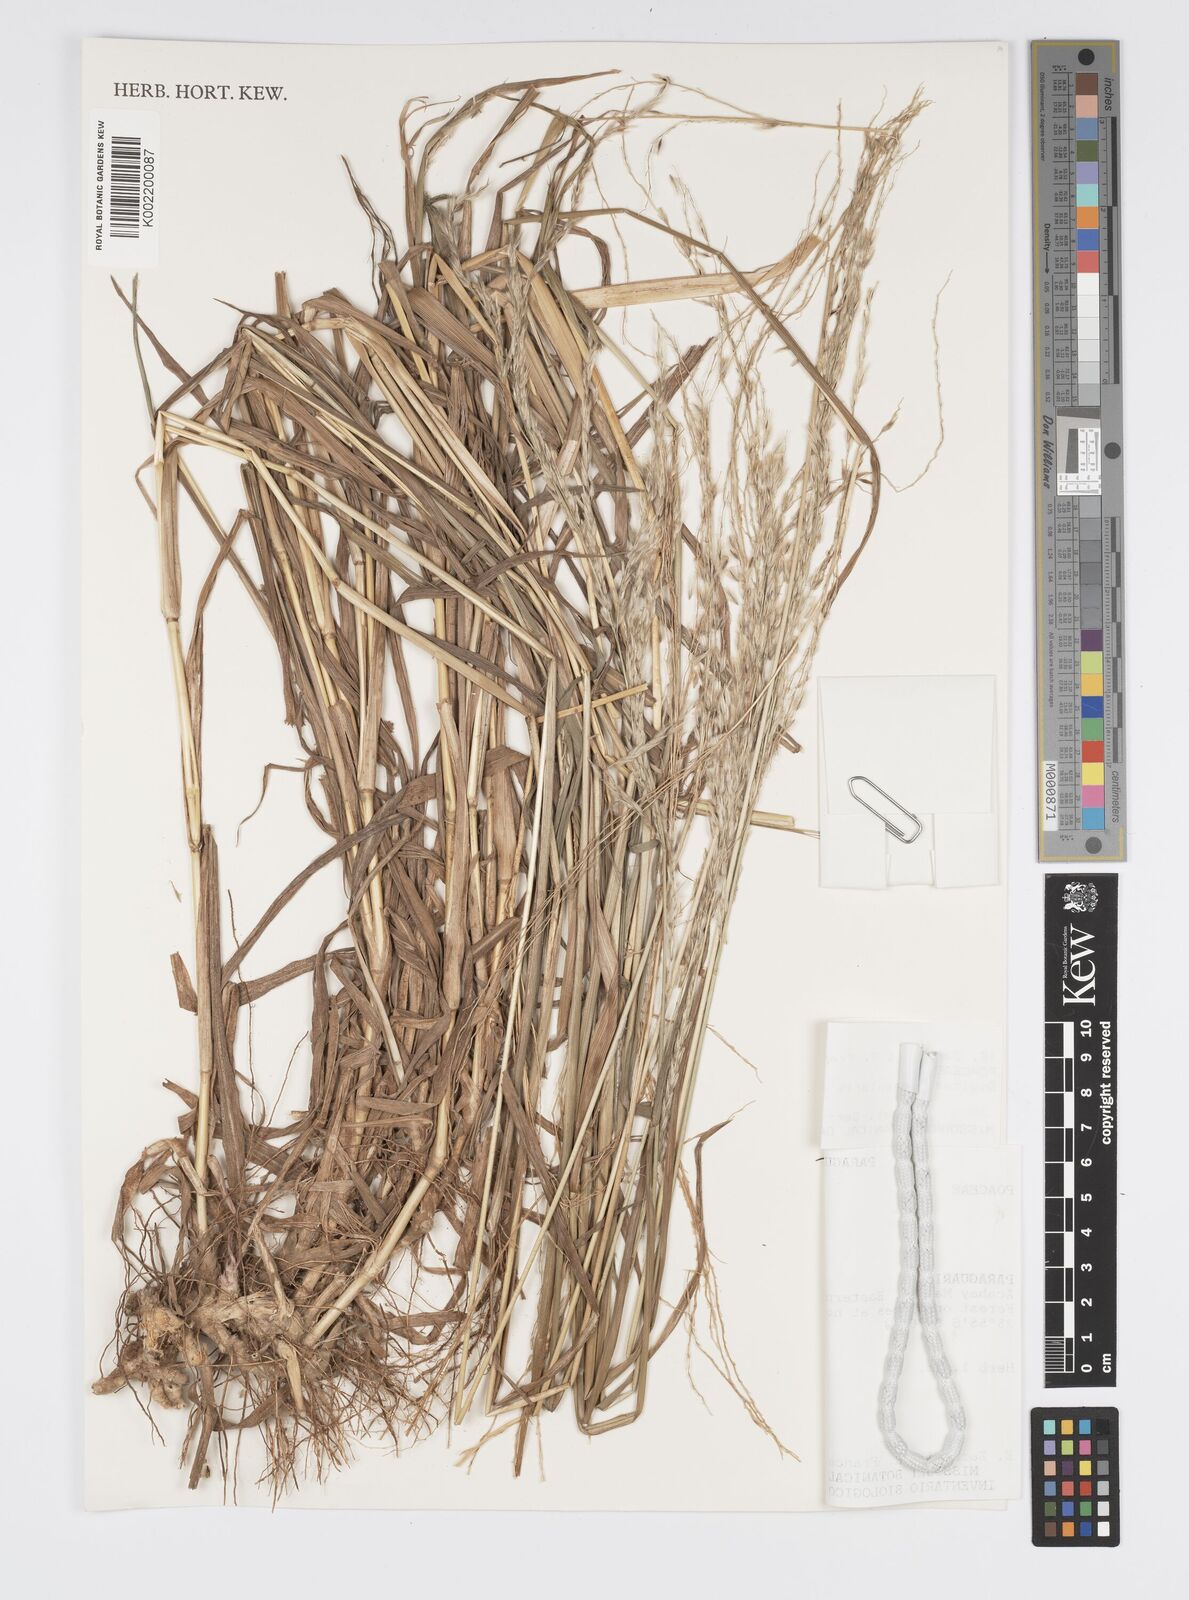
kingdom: Plantae
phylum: Tracheophyta
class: Liliopsida
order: Poales
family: Poaceae
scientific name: Poaceae
